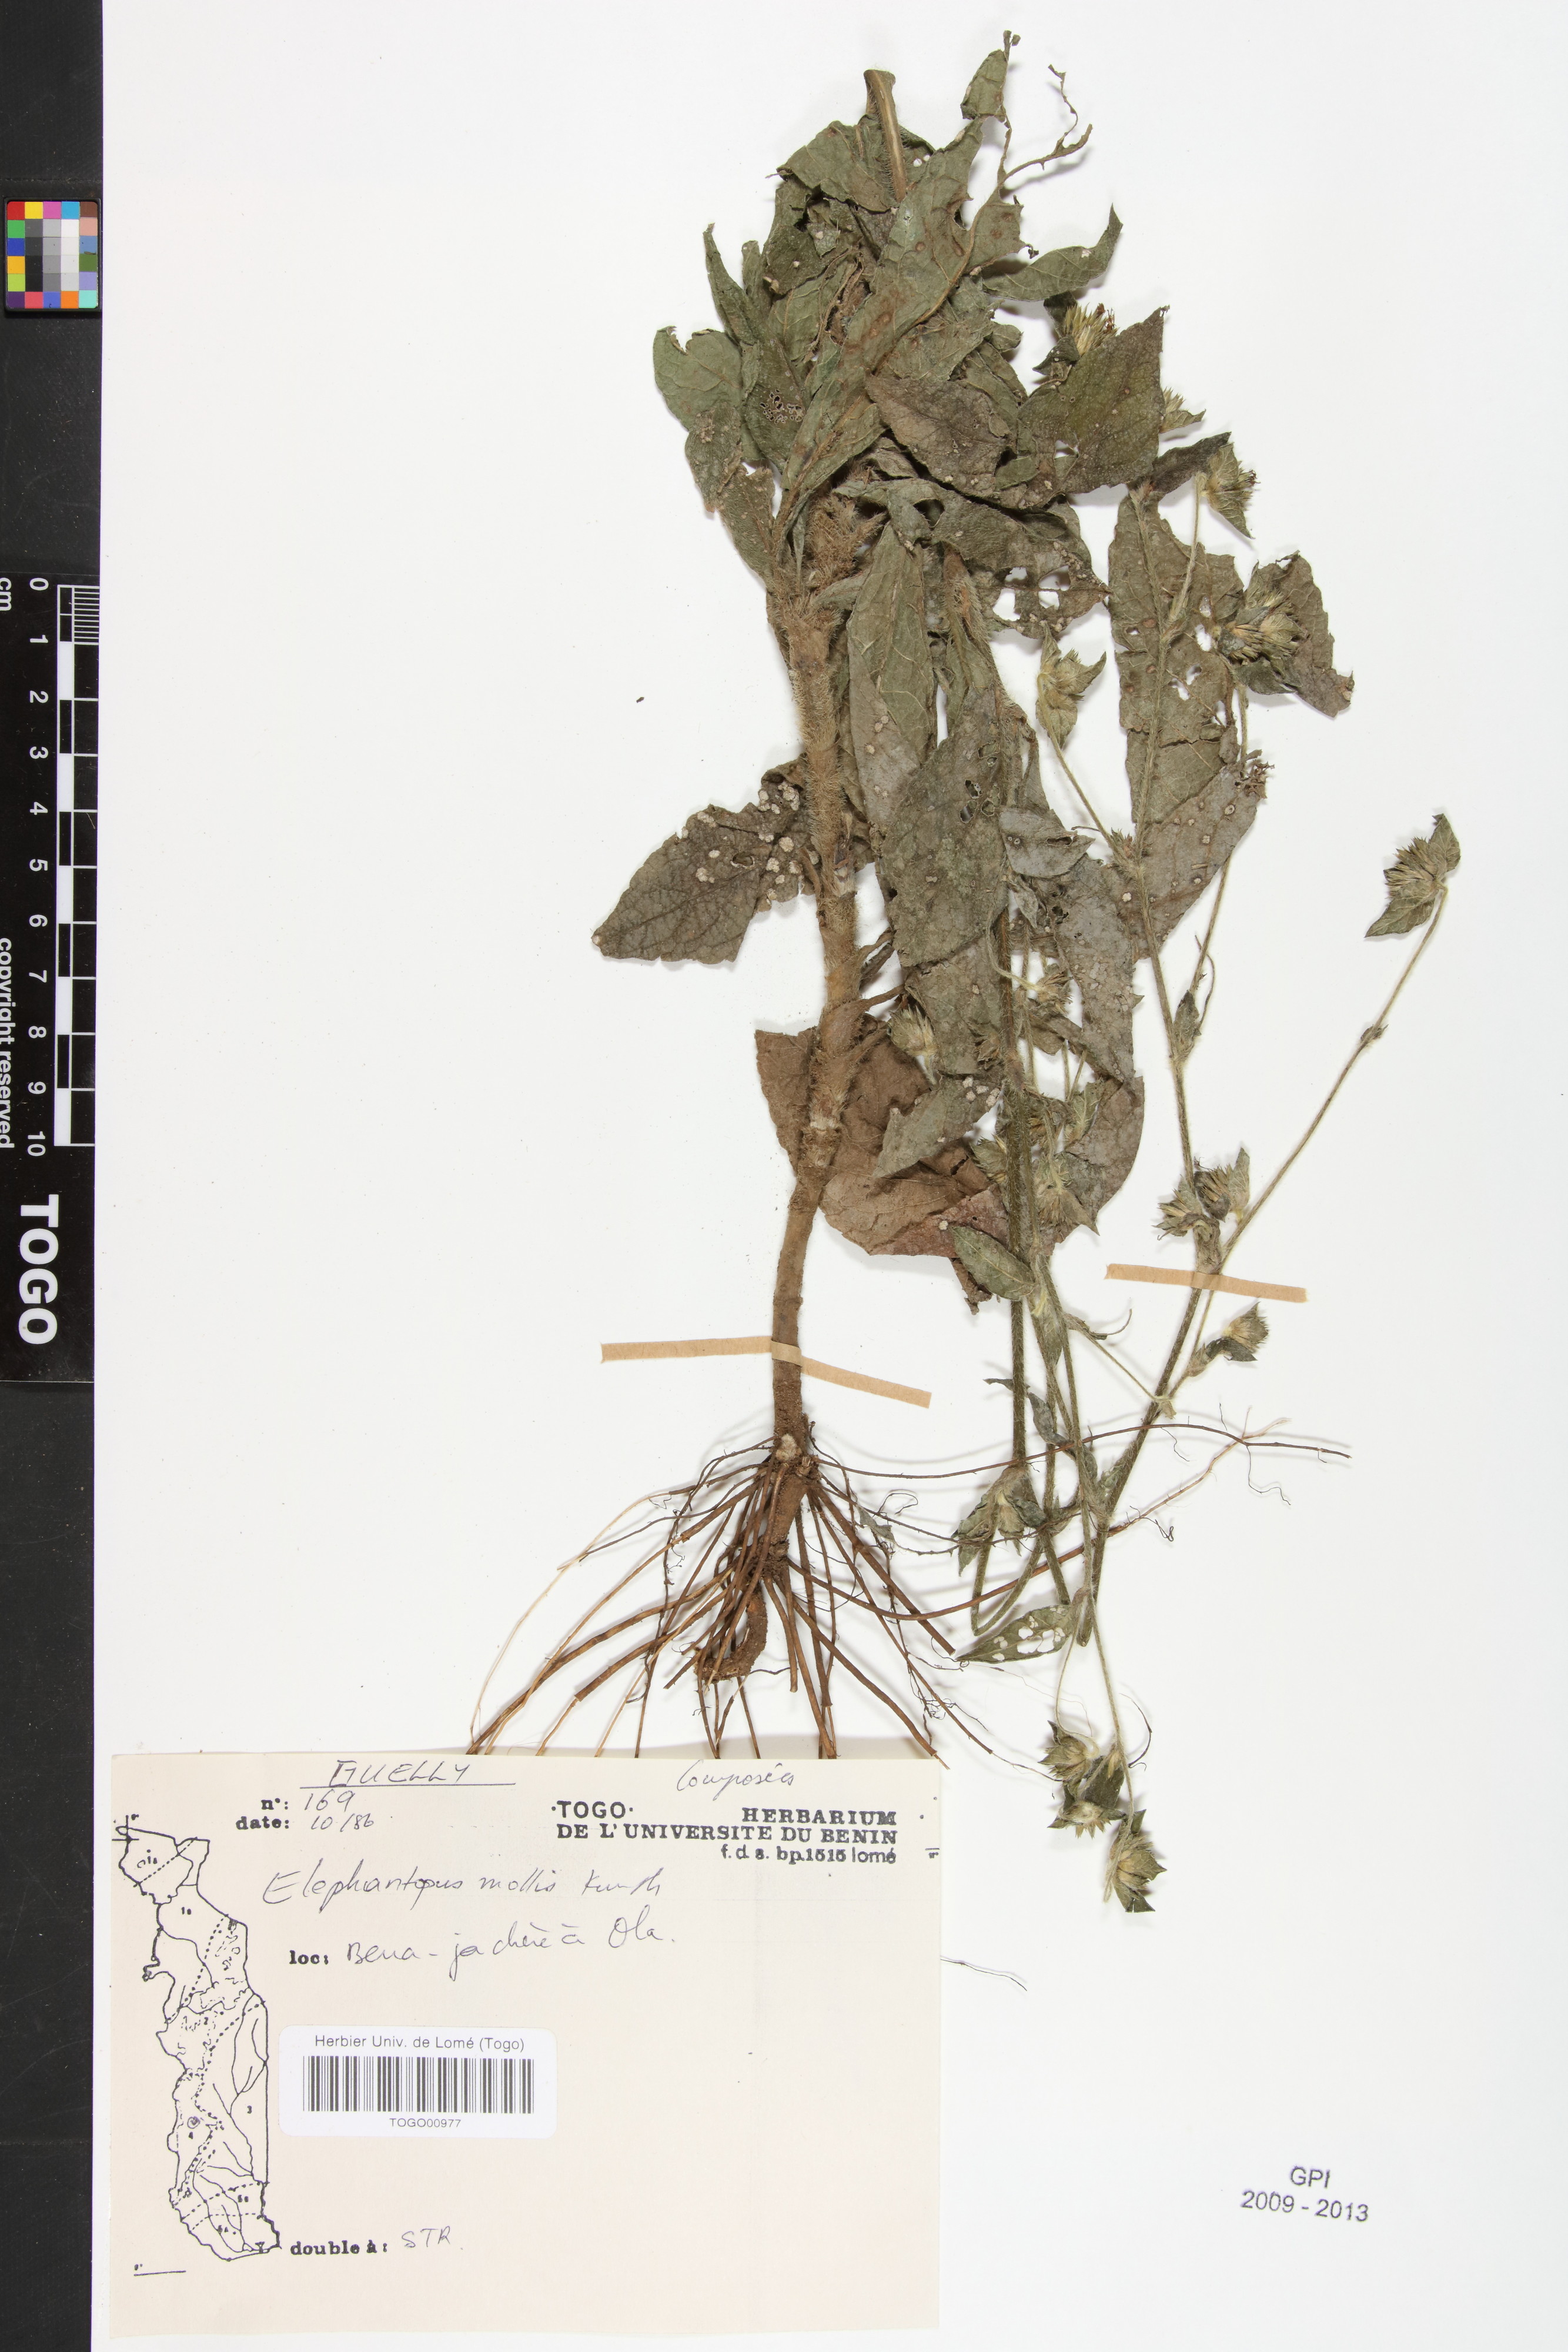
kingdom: Plantae
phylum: Tracheophyta
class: Magnoliopsida
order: Asterales
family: Asteraceae
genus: Elephantopus
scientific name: Elephantopus mollis
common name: Soft elephantsfoot
